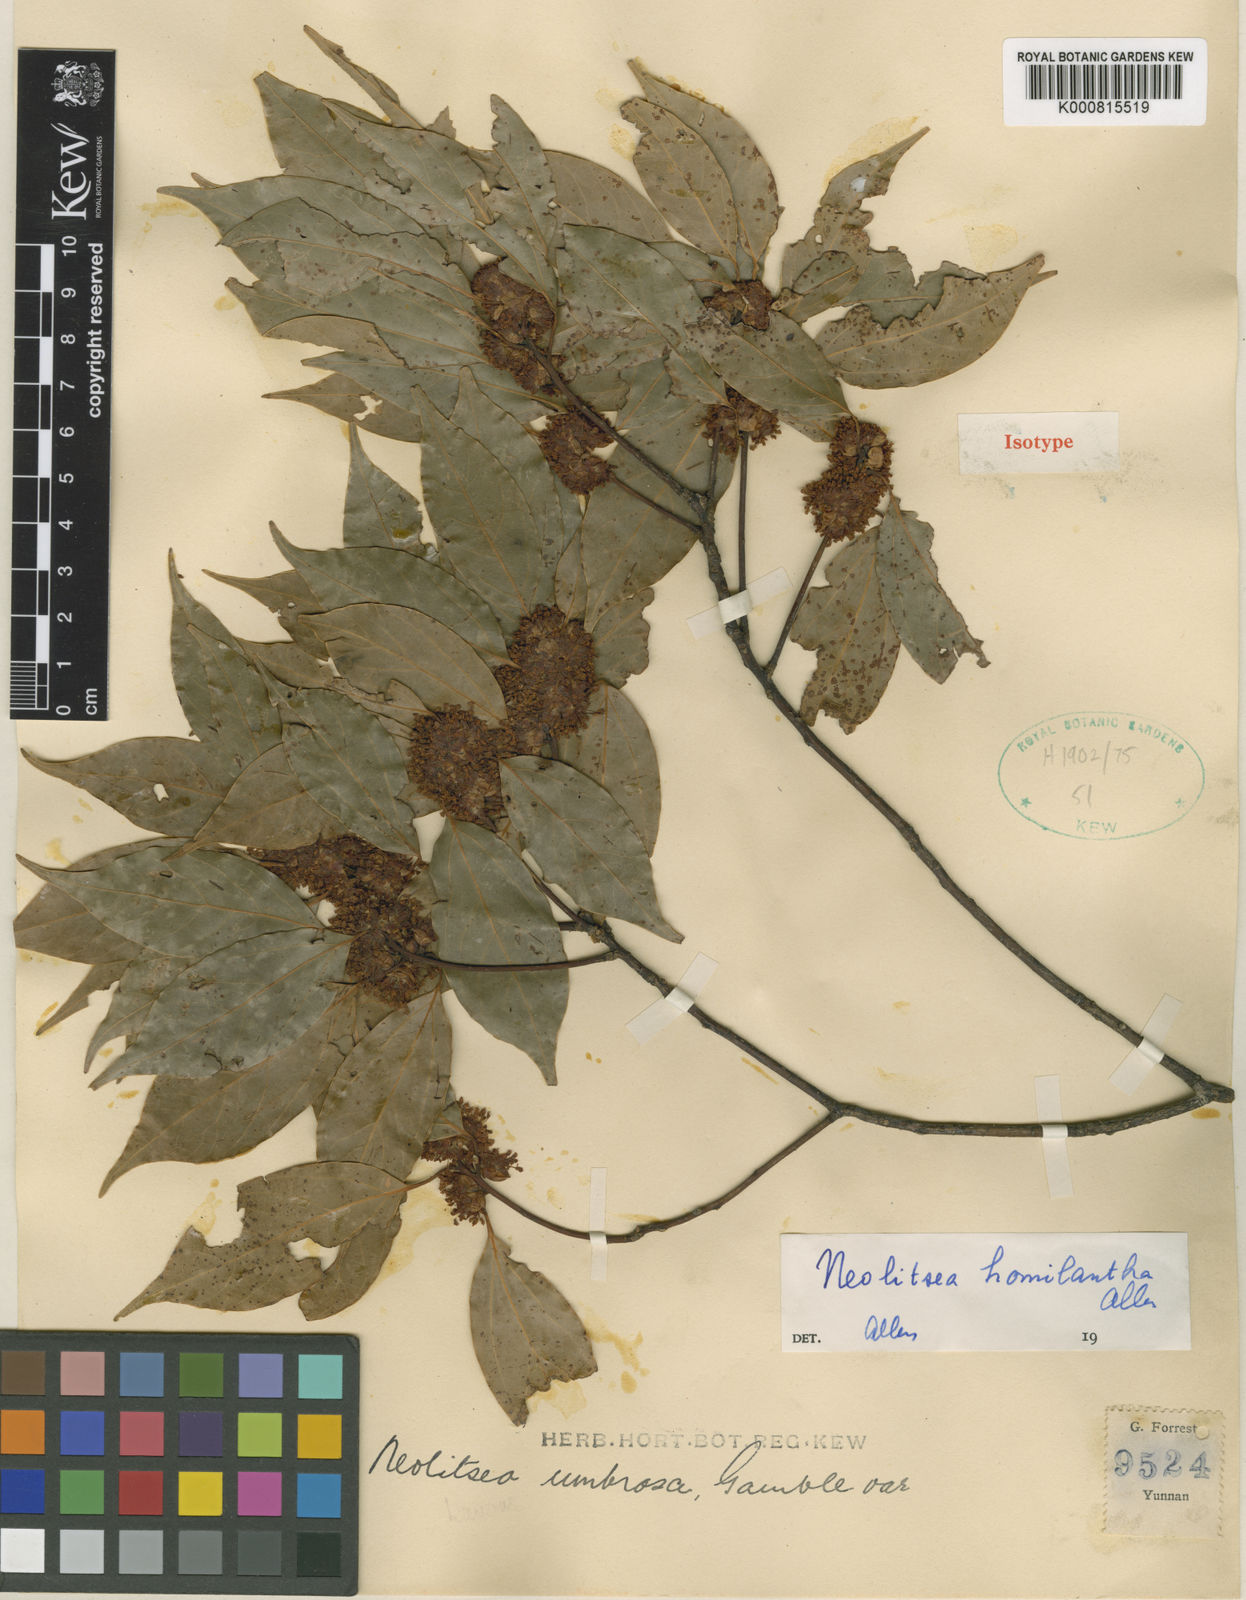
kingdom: Plantae
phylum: Tracheophyta
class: Magnoliopsida
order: Laurales
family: Lauraceae
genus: Neolitsea
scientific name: Neolitsea homilantha
